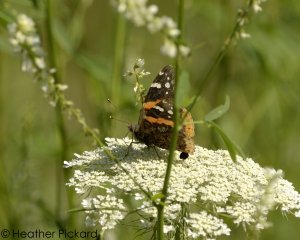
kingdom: Animalia
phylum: Arthropoda
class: Insecta
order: Lepidoptera
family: Nymphalidae
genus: Vanessa
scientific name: Vanessa atalanta
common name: Red Admiral
